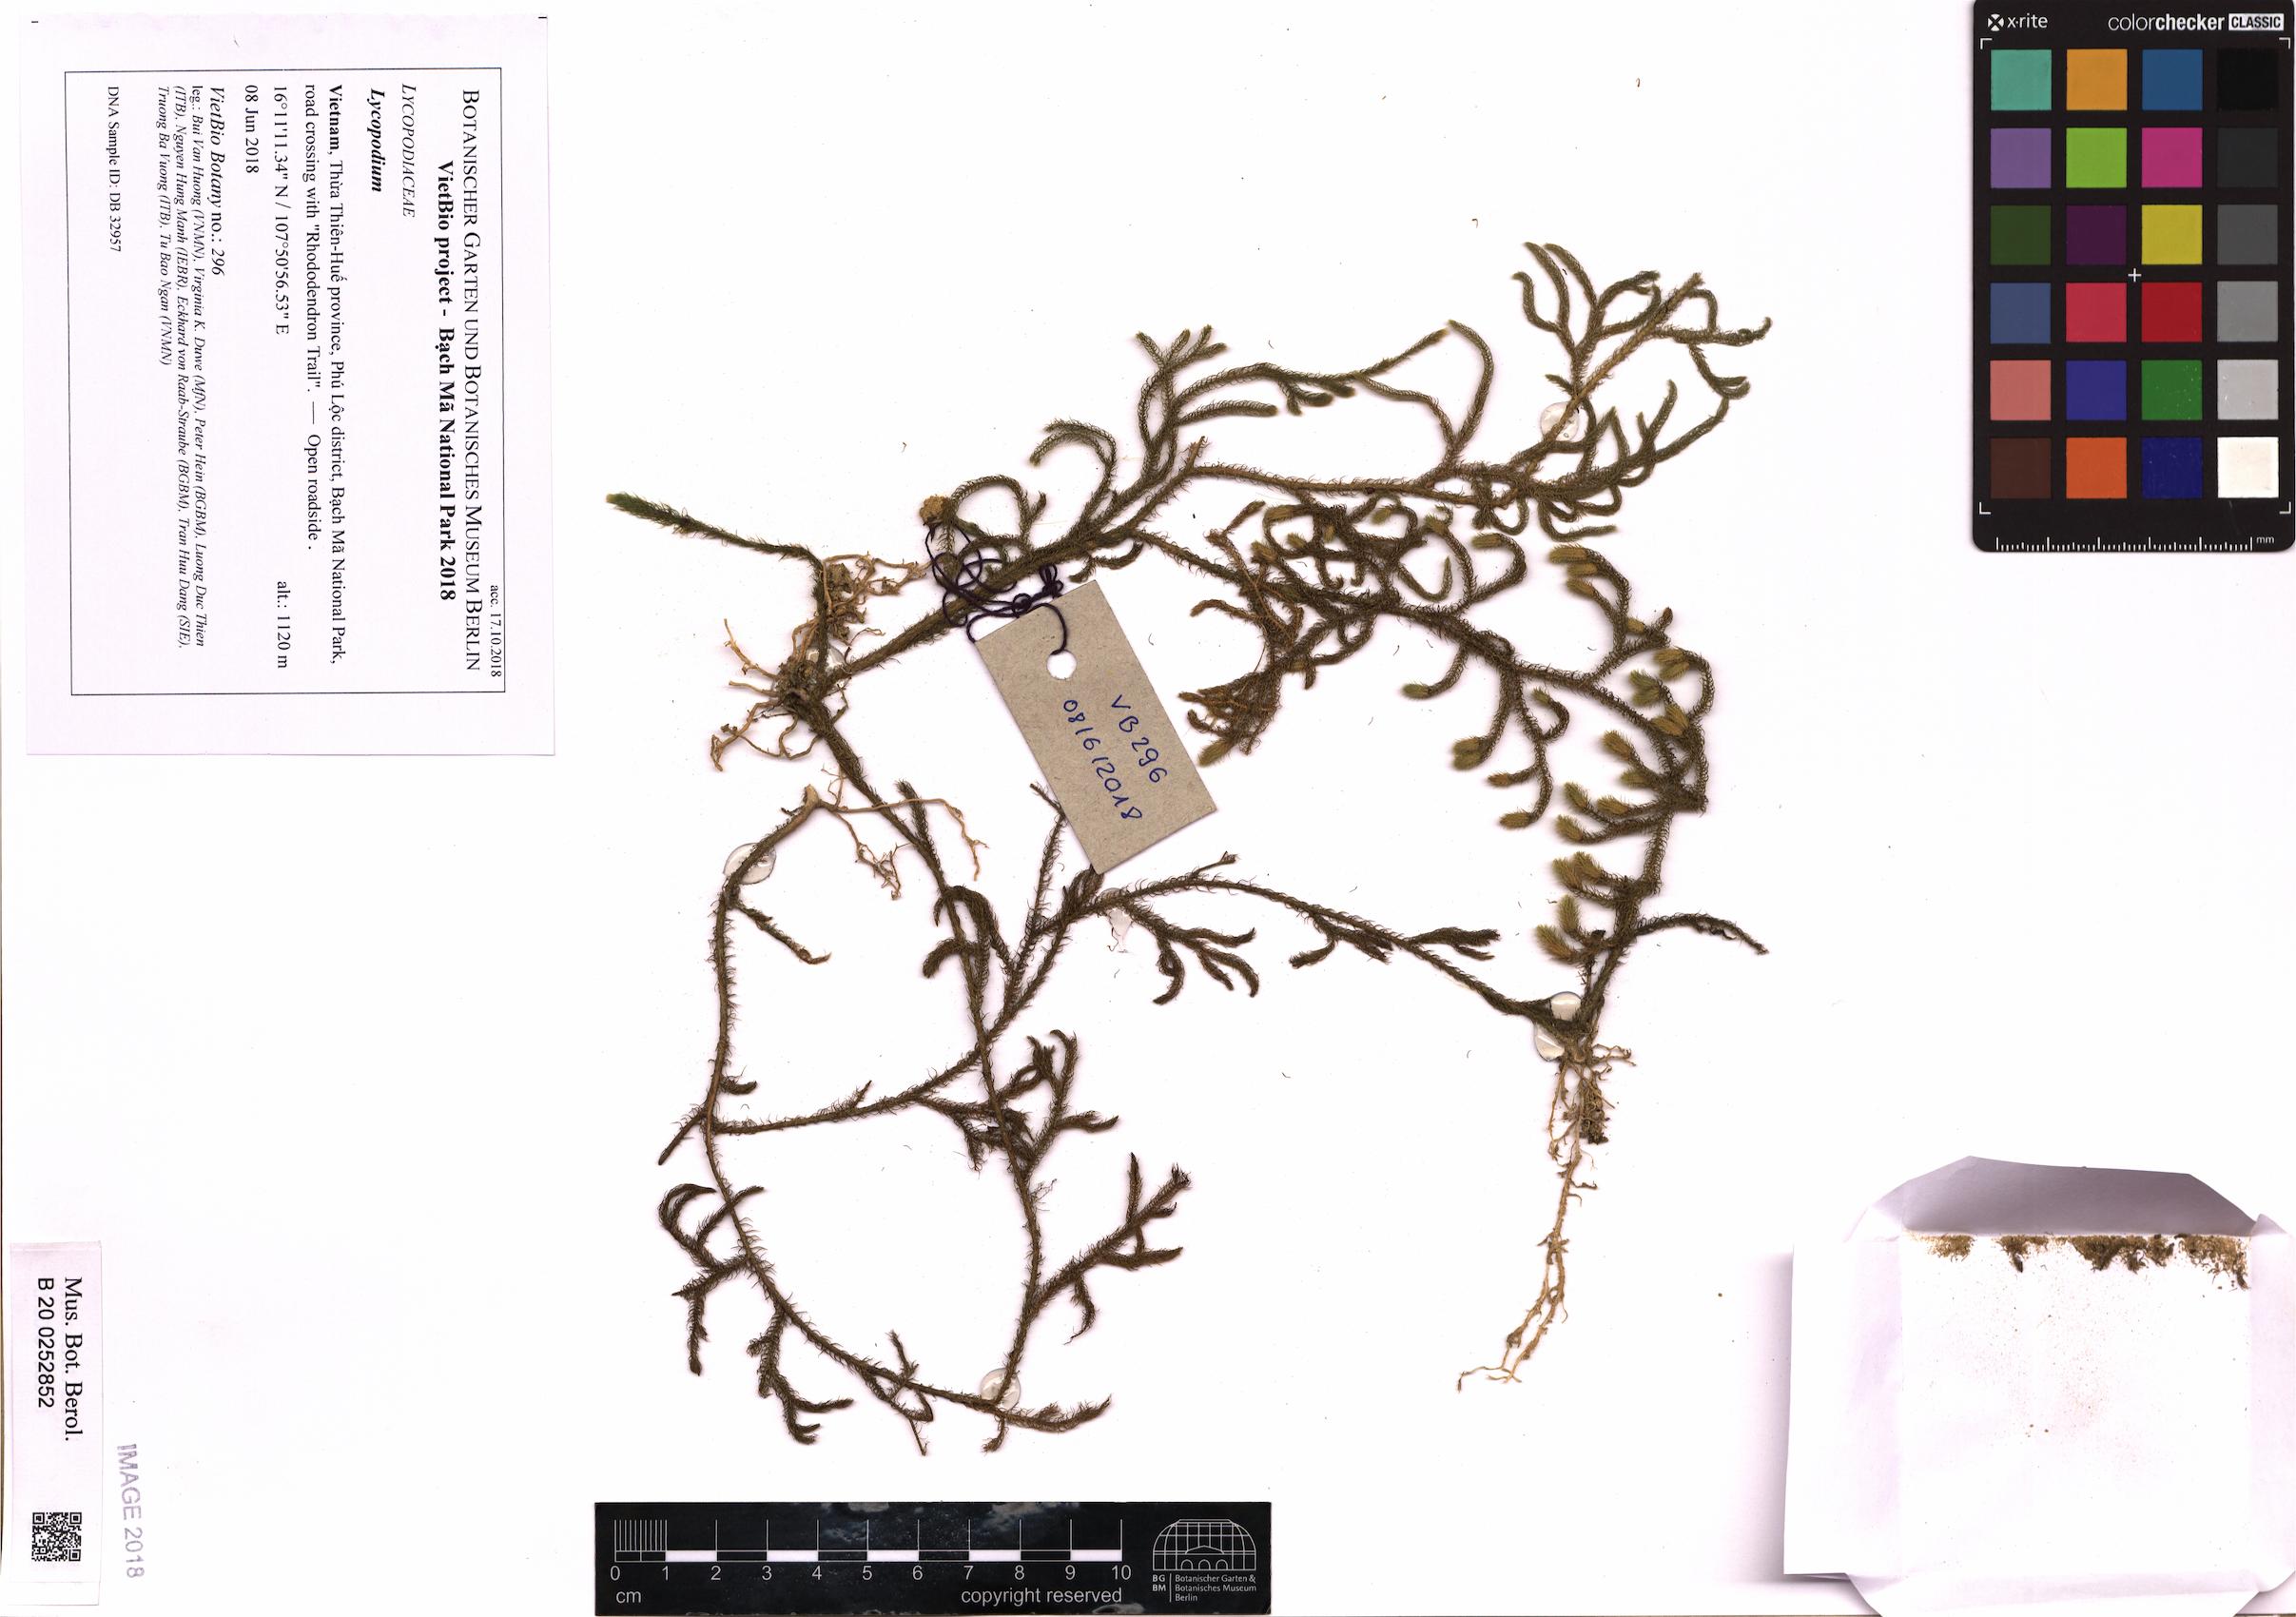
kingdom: Plantae
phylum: Tracheophyta
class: Lycopodiopsida
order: Lycopodiales
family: Lycopodiaceae
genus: Lycopodium
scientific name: Lycopodium
